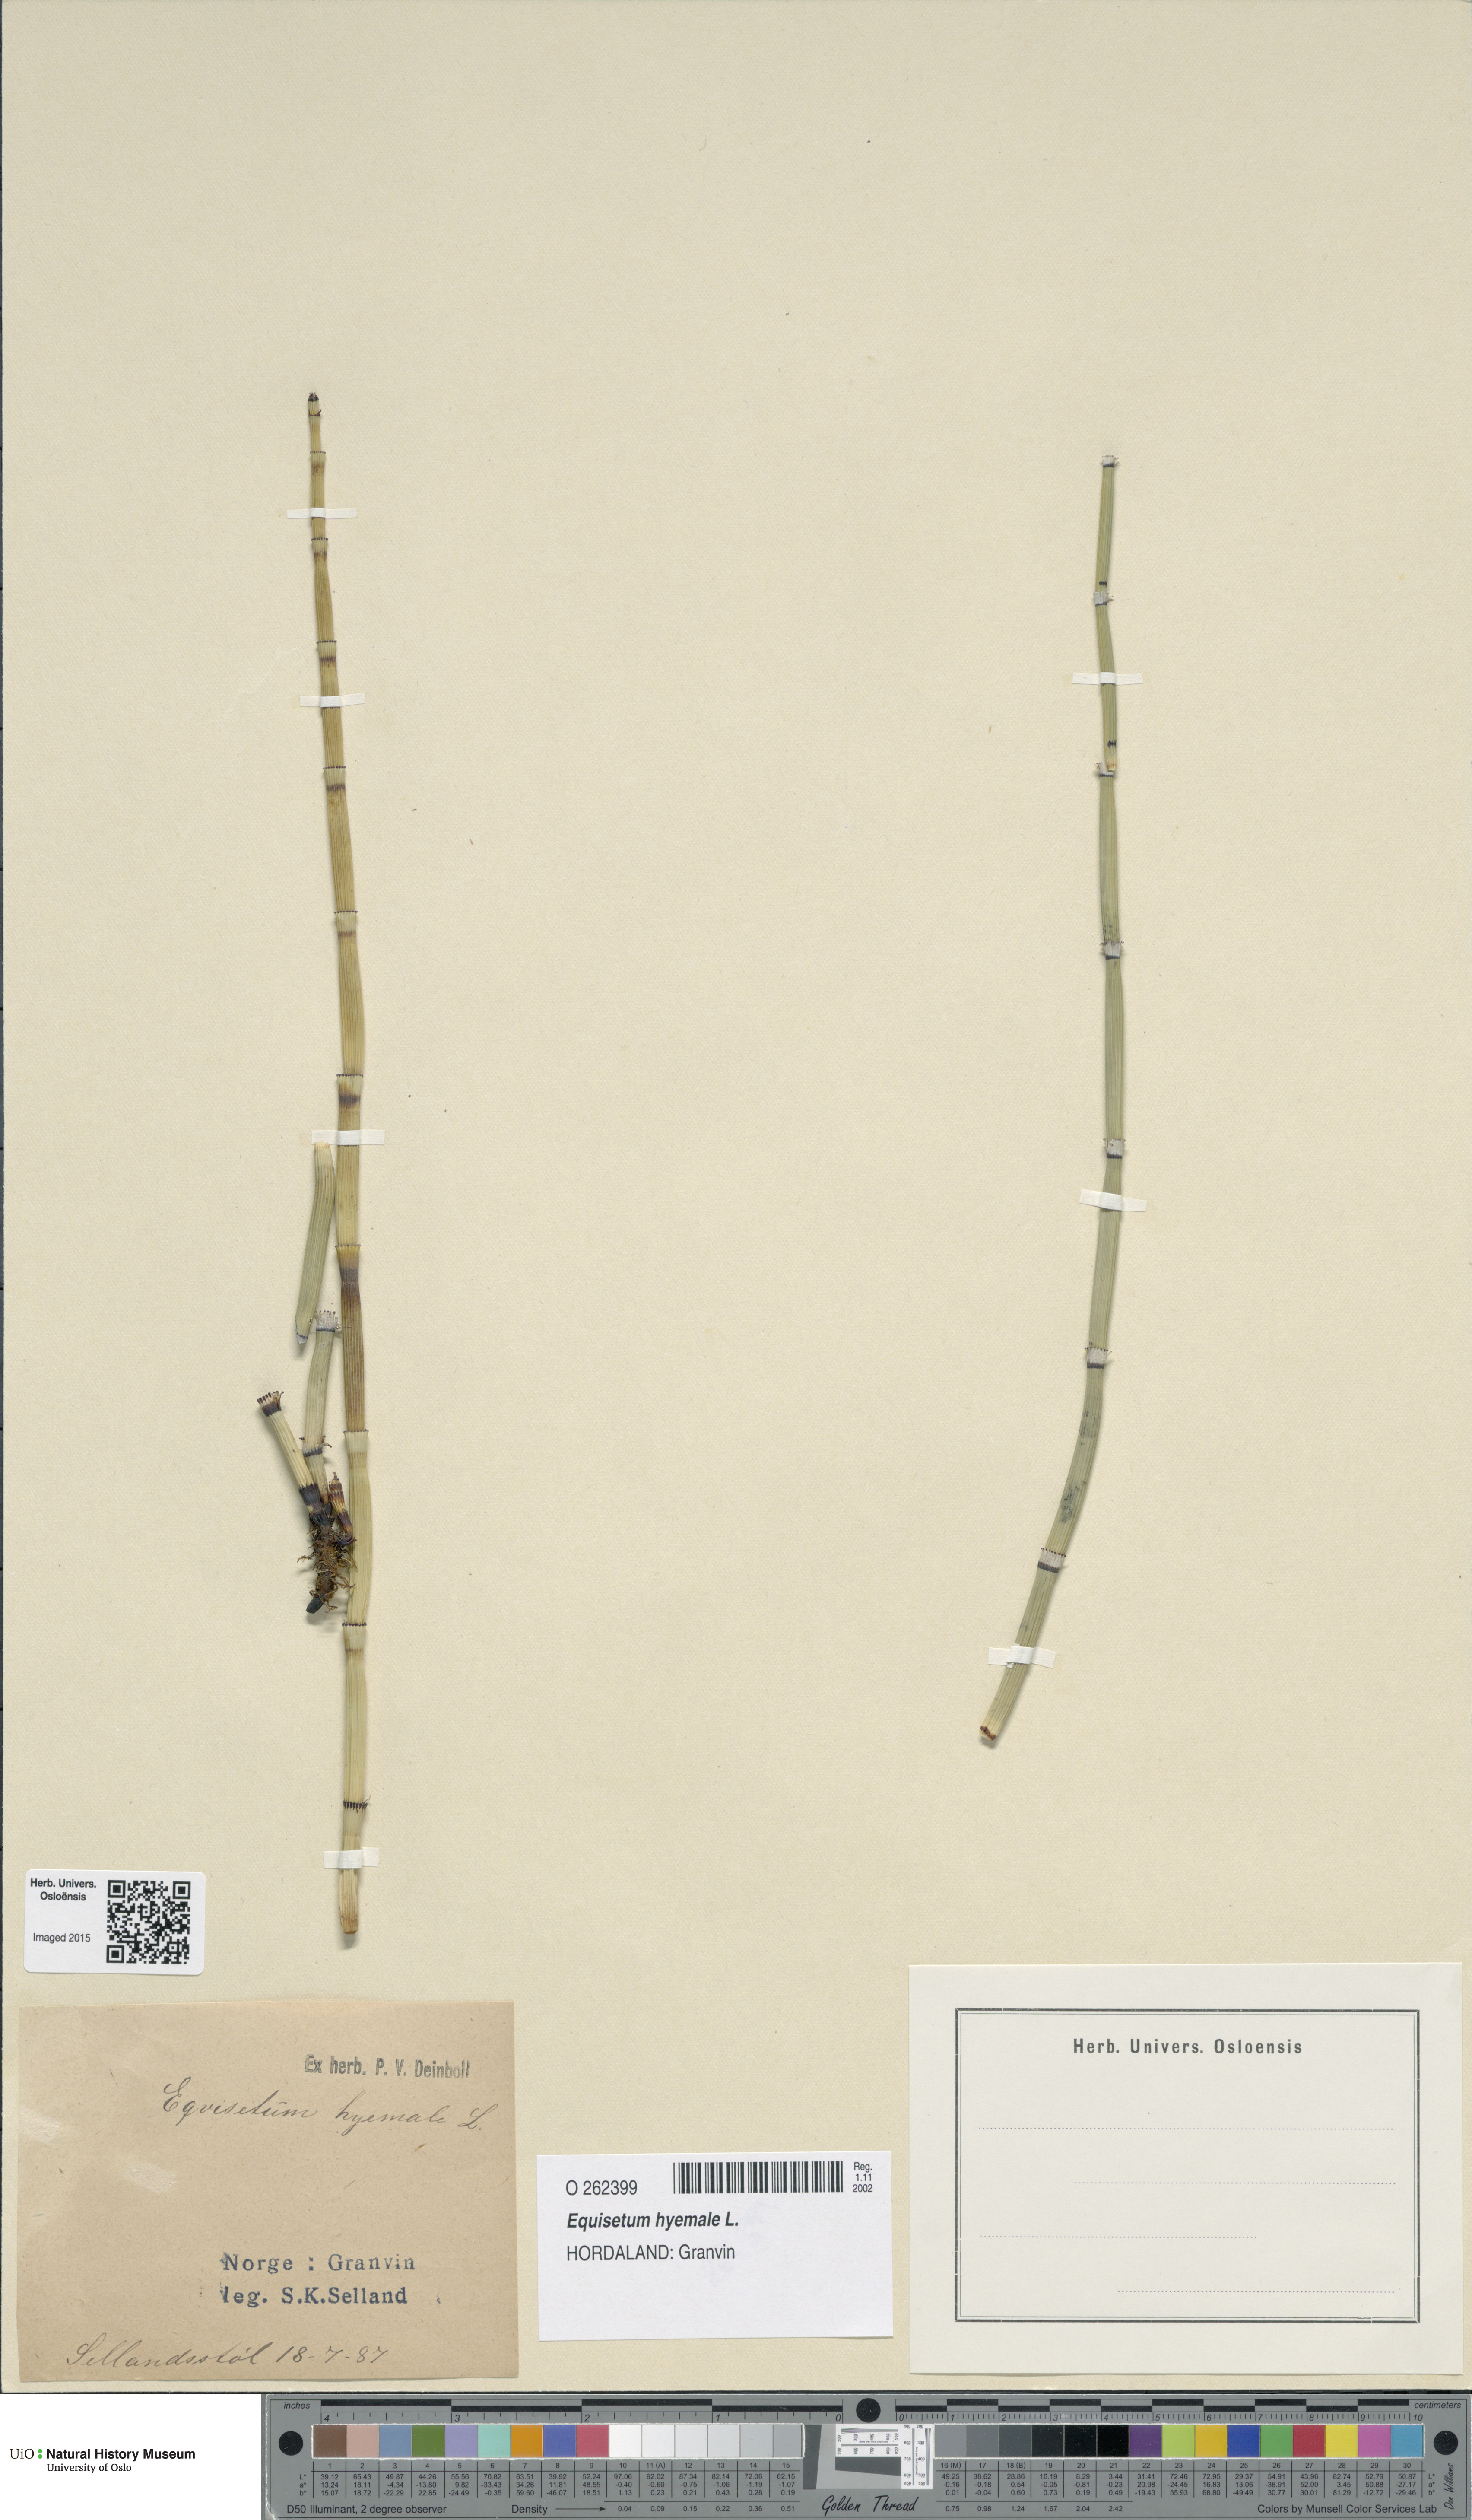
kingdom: Plantae
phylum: Tracheophyta
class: Polypodiopsida
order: Equisetales
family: Equisetaceae
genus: Equisetum
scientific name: Equisetum hyemale
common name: Rough horsetail
